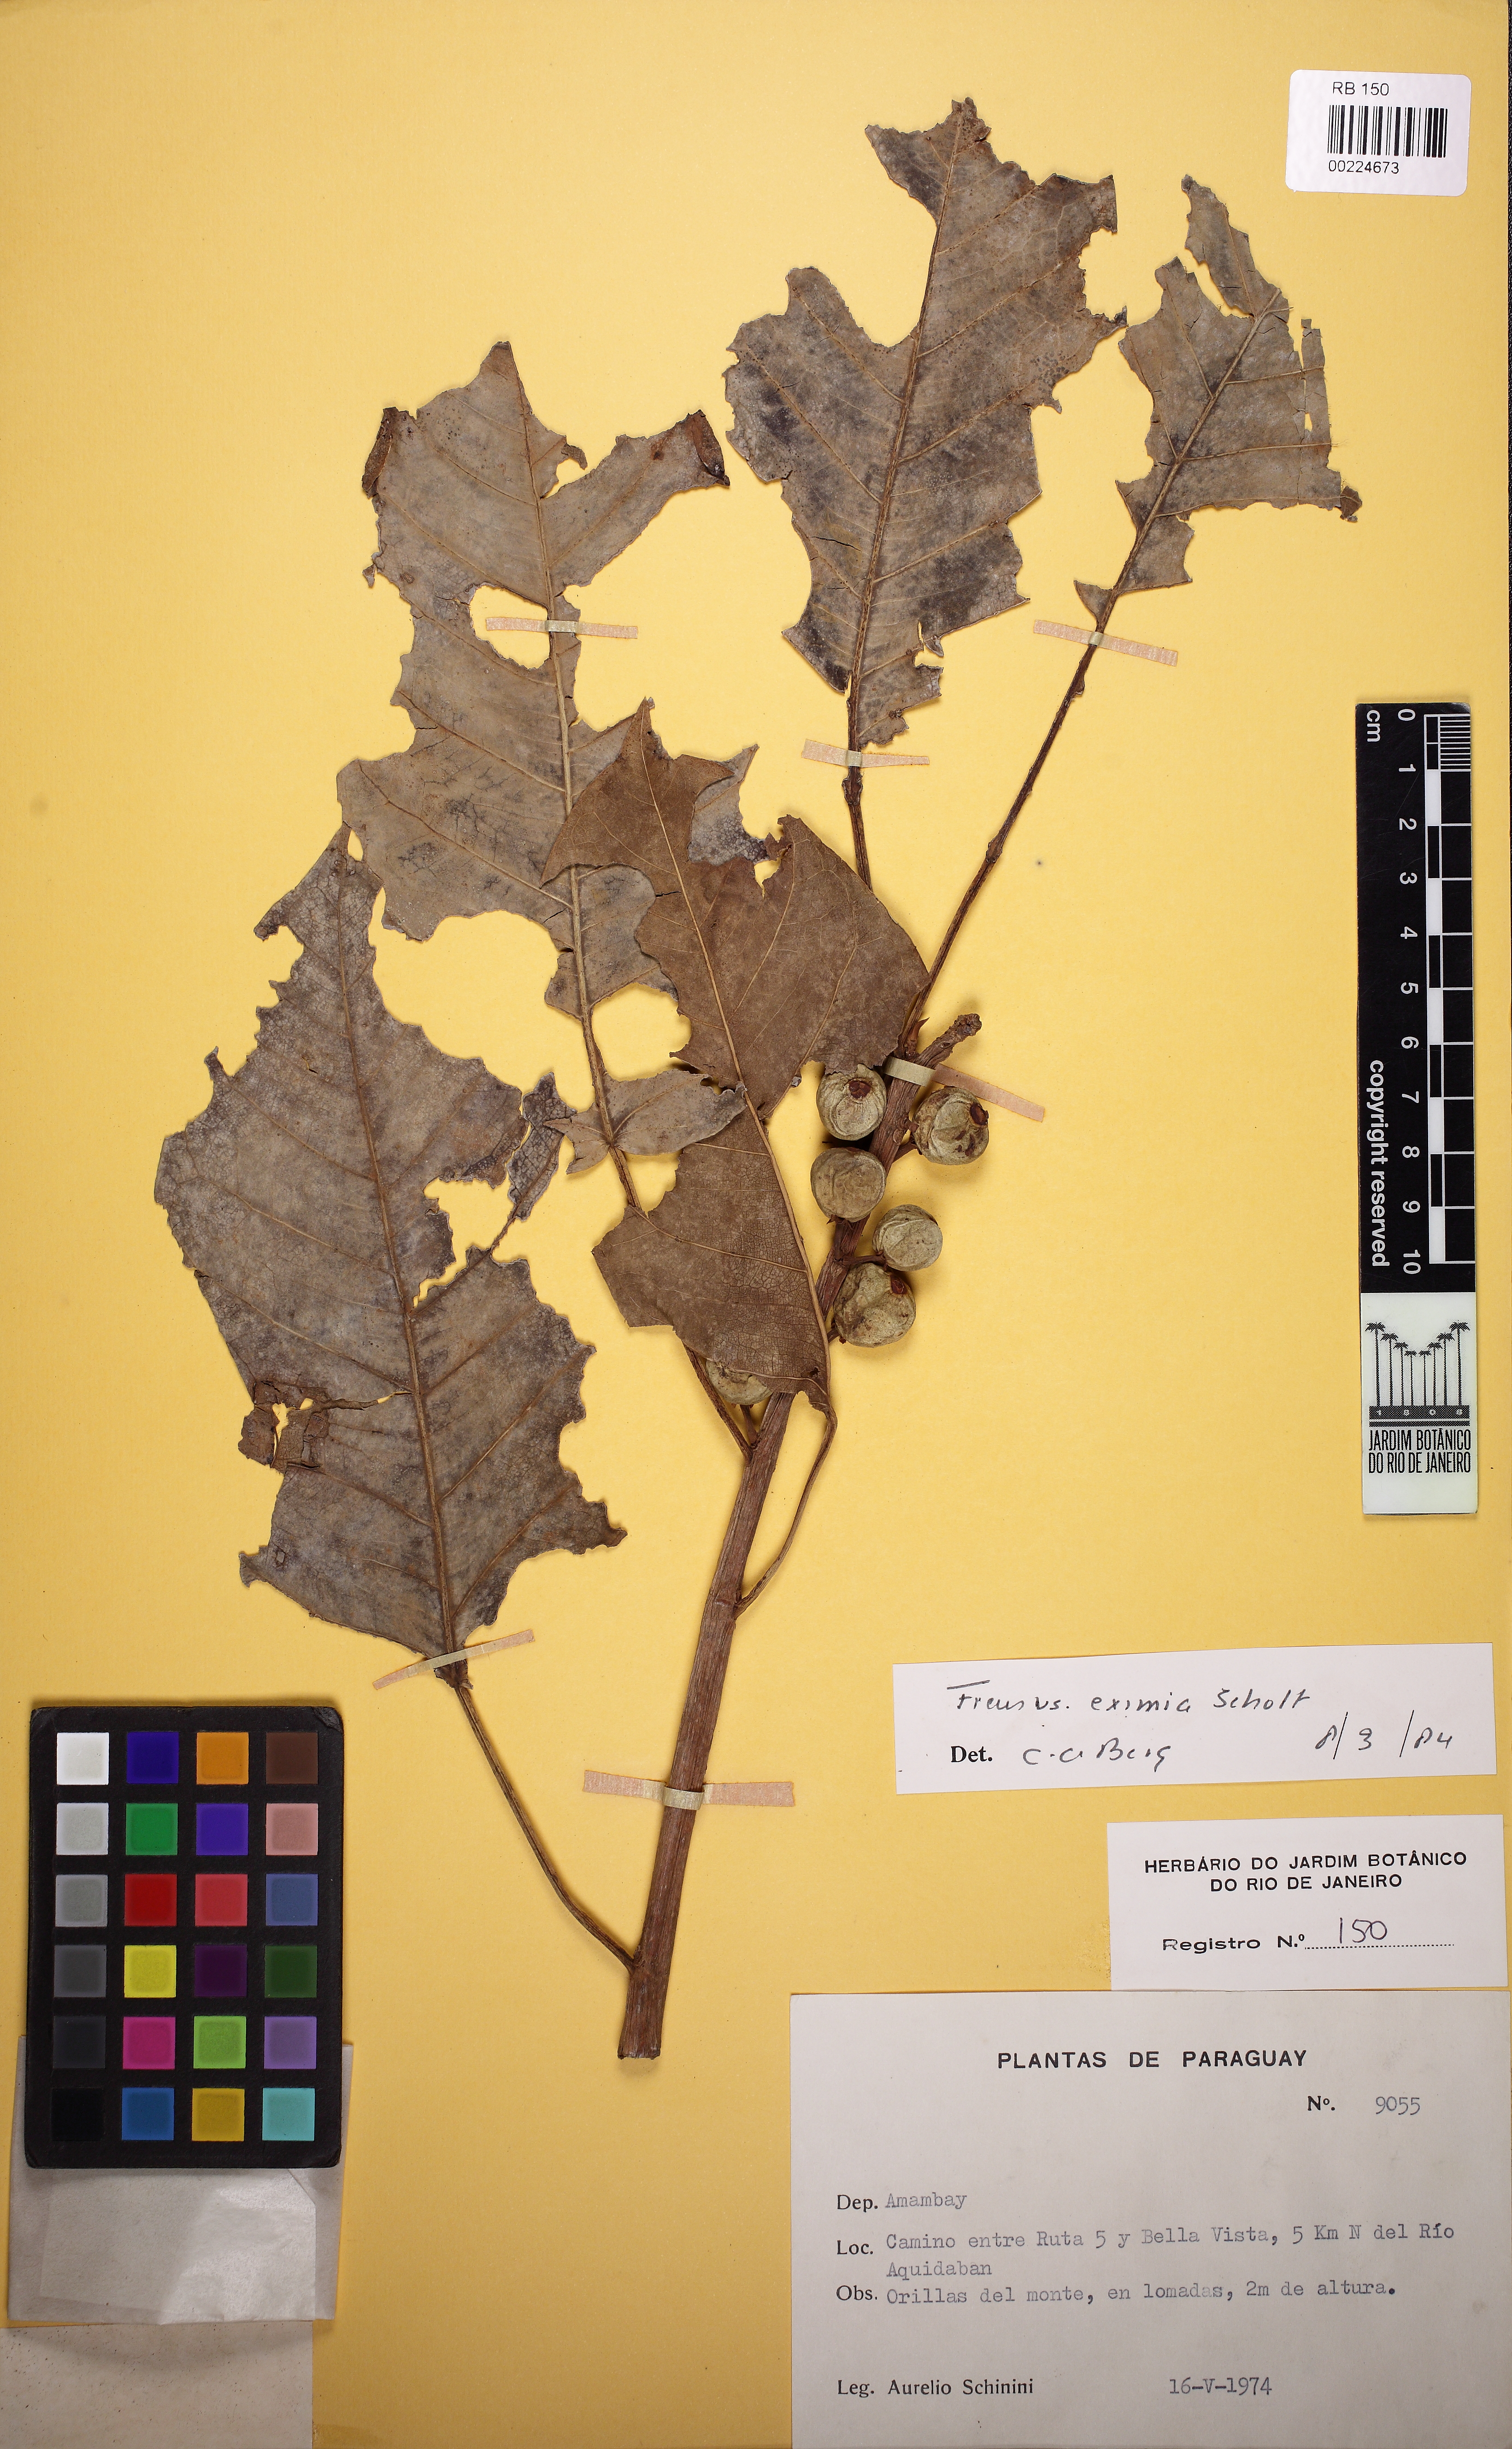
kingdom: Plantae
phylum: Tracheophyta
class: Magnoliopsida
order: Rosales
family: Moraceae
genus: Ficus
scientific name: Ficus guaranitica
